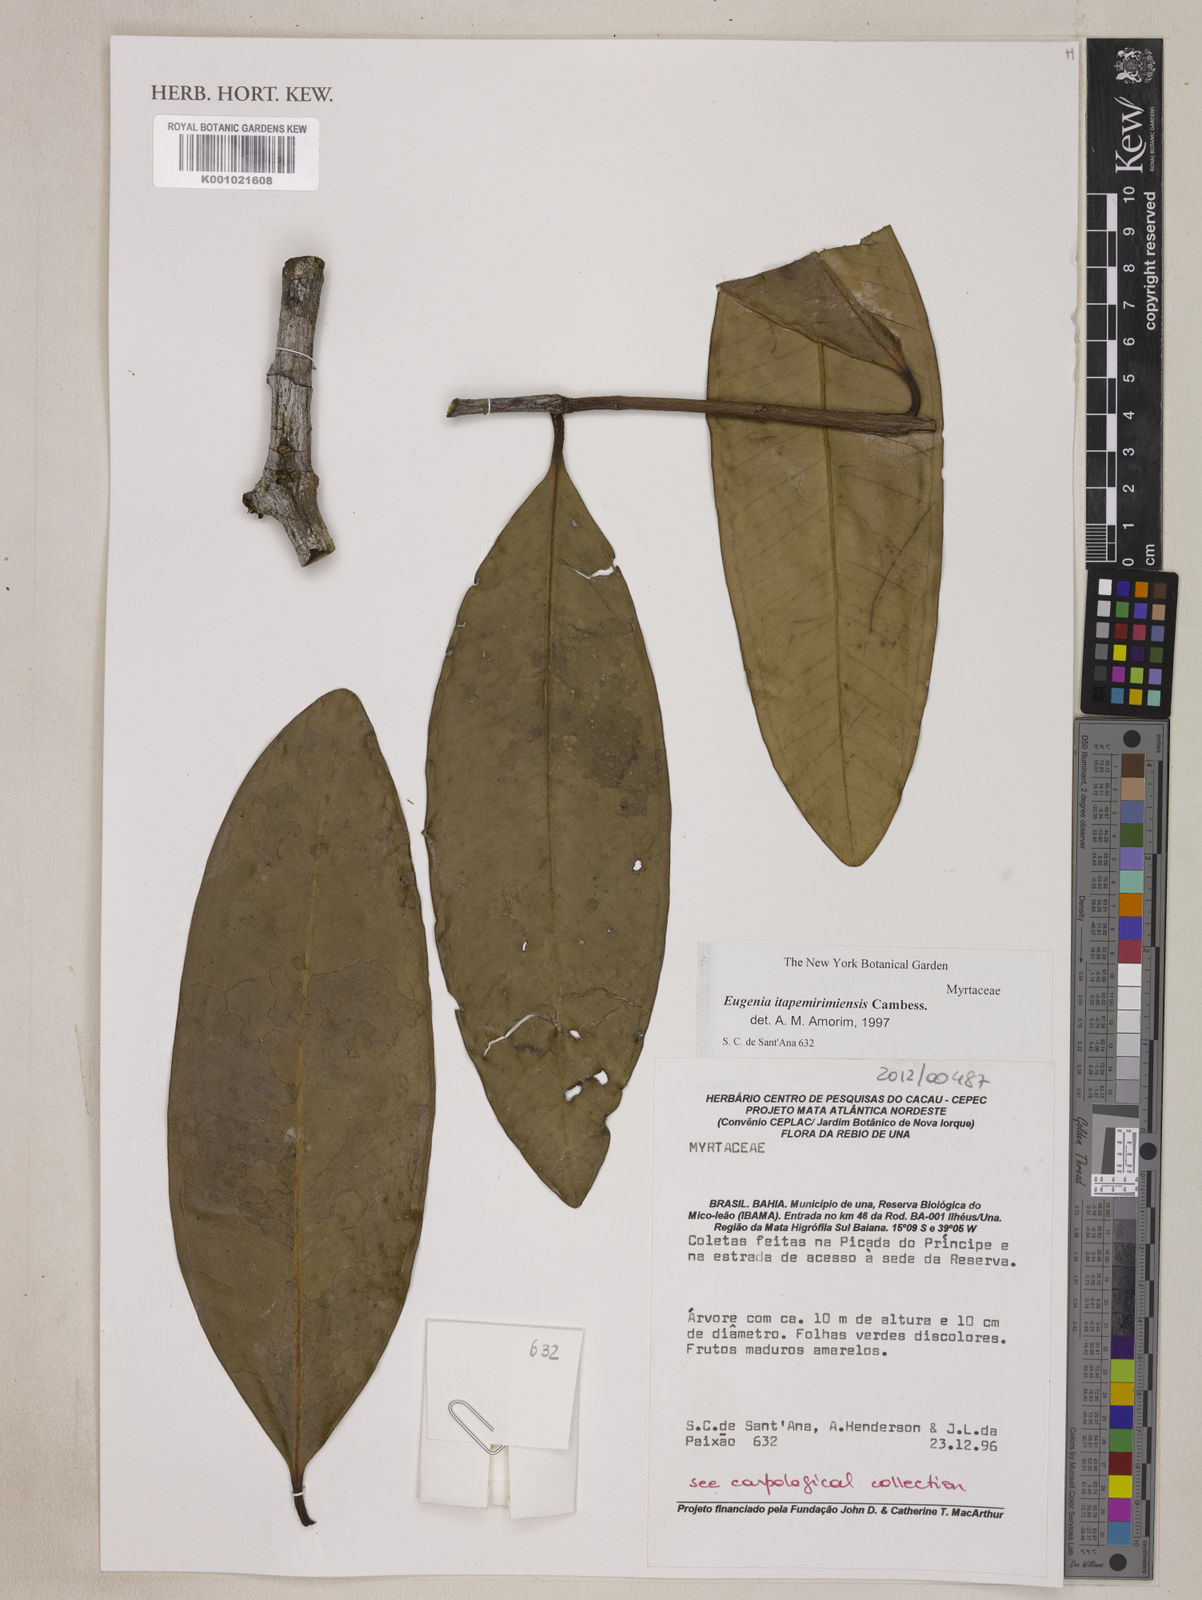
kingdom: Plantae
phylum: Tracheophyta
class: Magnoliopsida
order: Myrtales
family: Myrtaceae
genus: Eugenia
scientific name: Eugenia itapemirimensis
